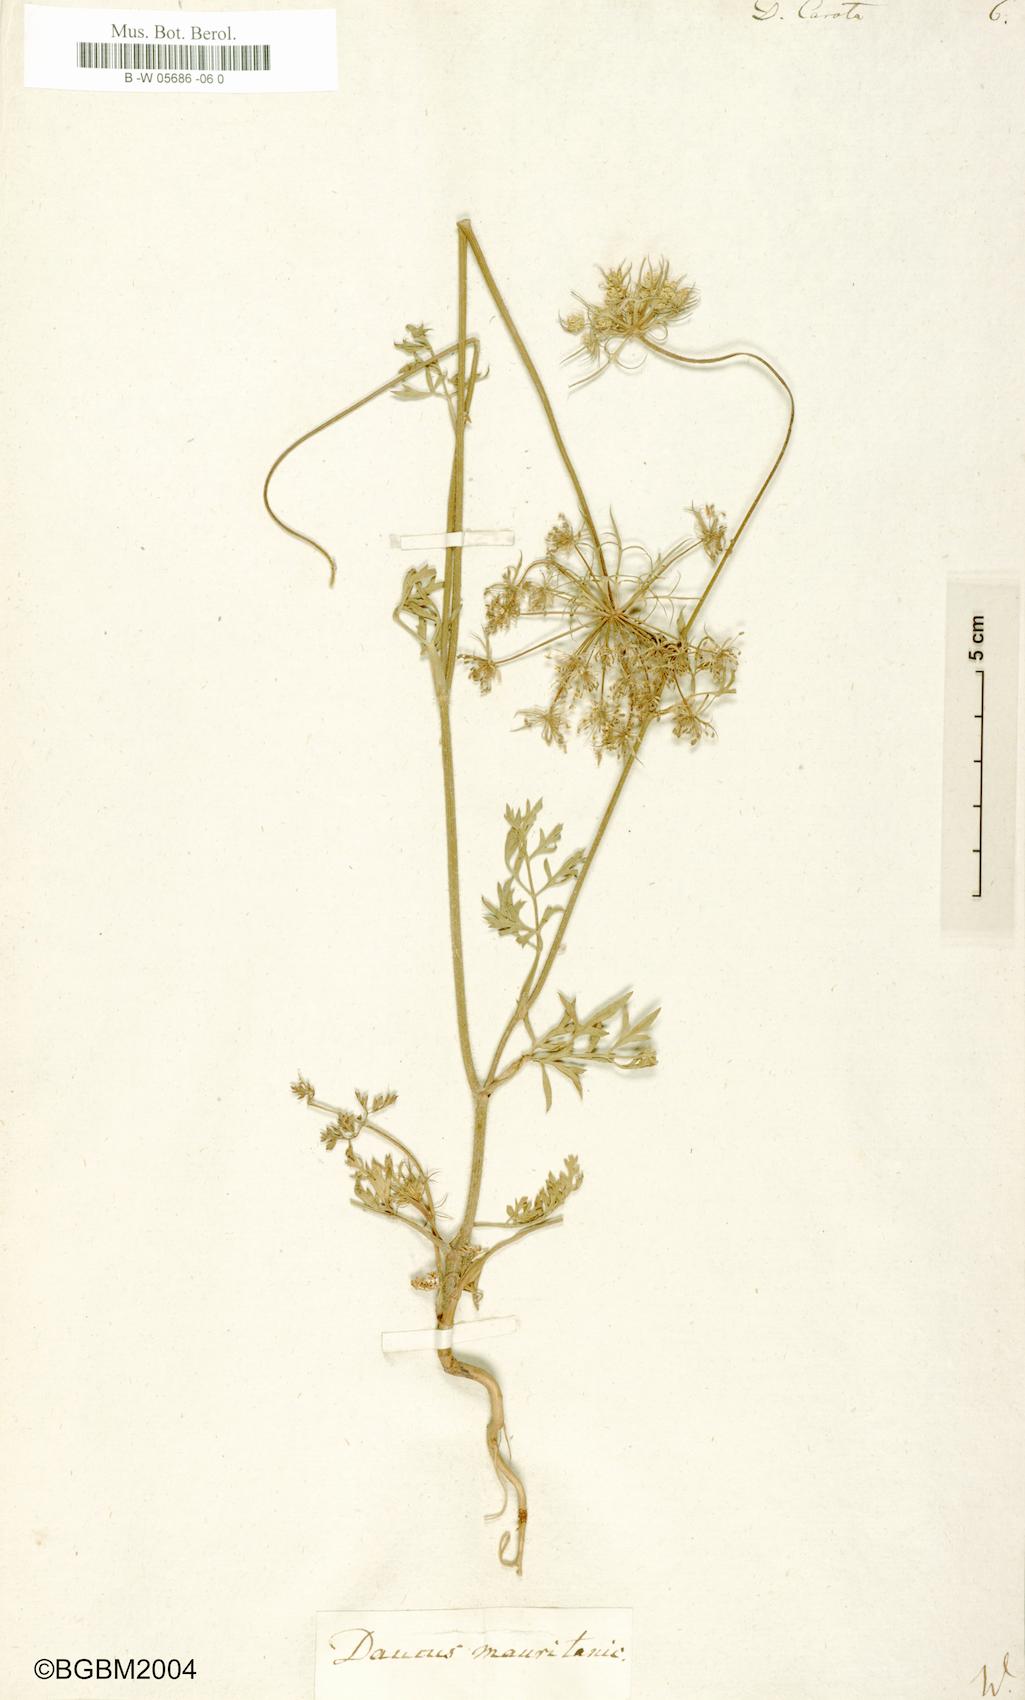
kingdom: Plantae
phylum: Tracheophyta
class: Magnoliopsida
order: Apiales
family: Apiaceae
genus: Daucus
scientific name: Daucus carota
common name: Wild carrot
